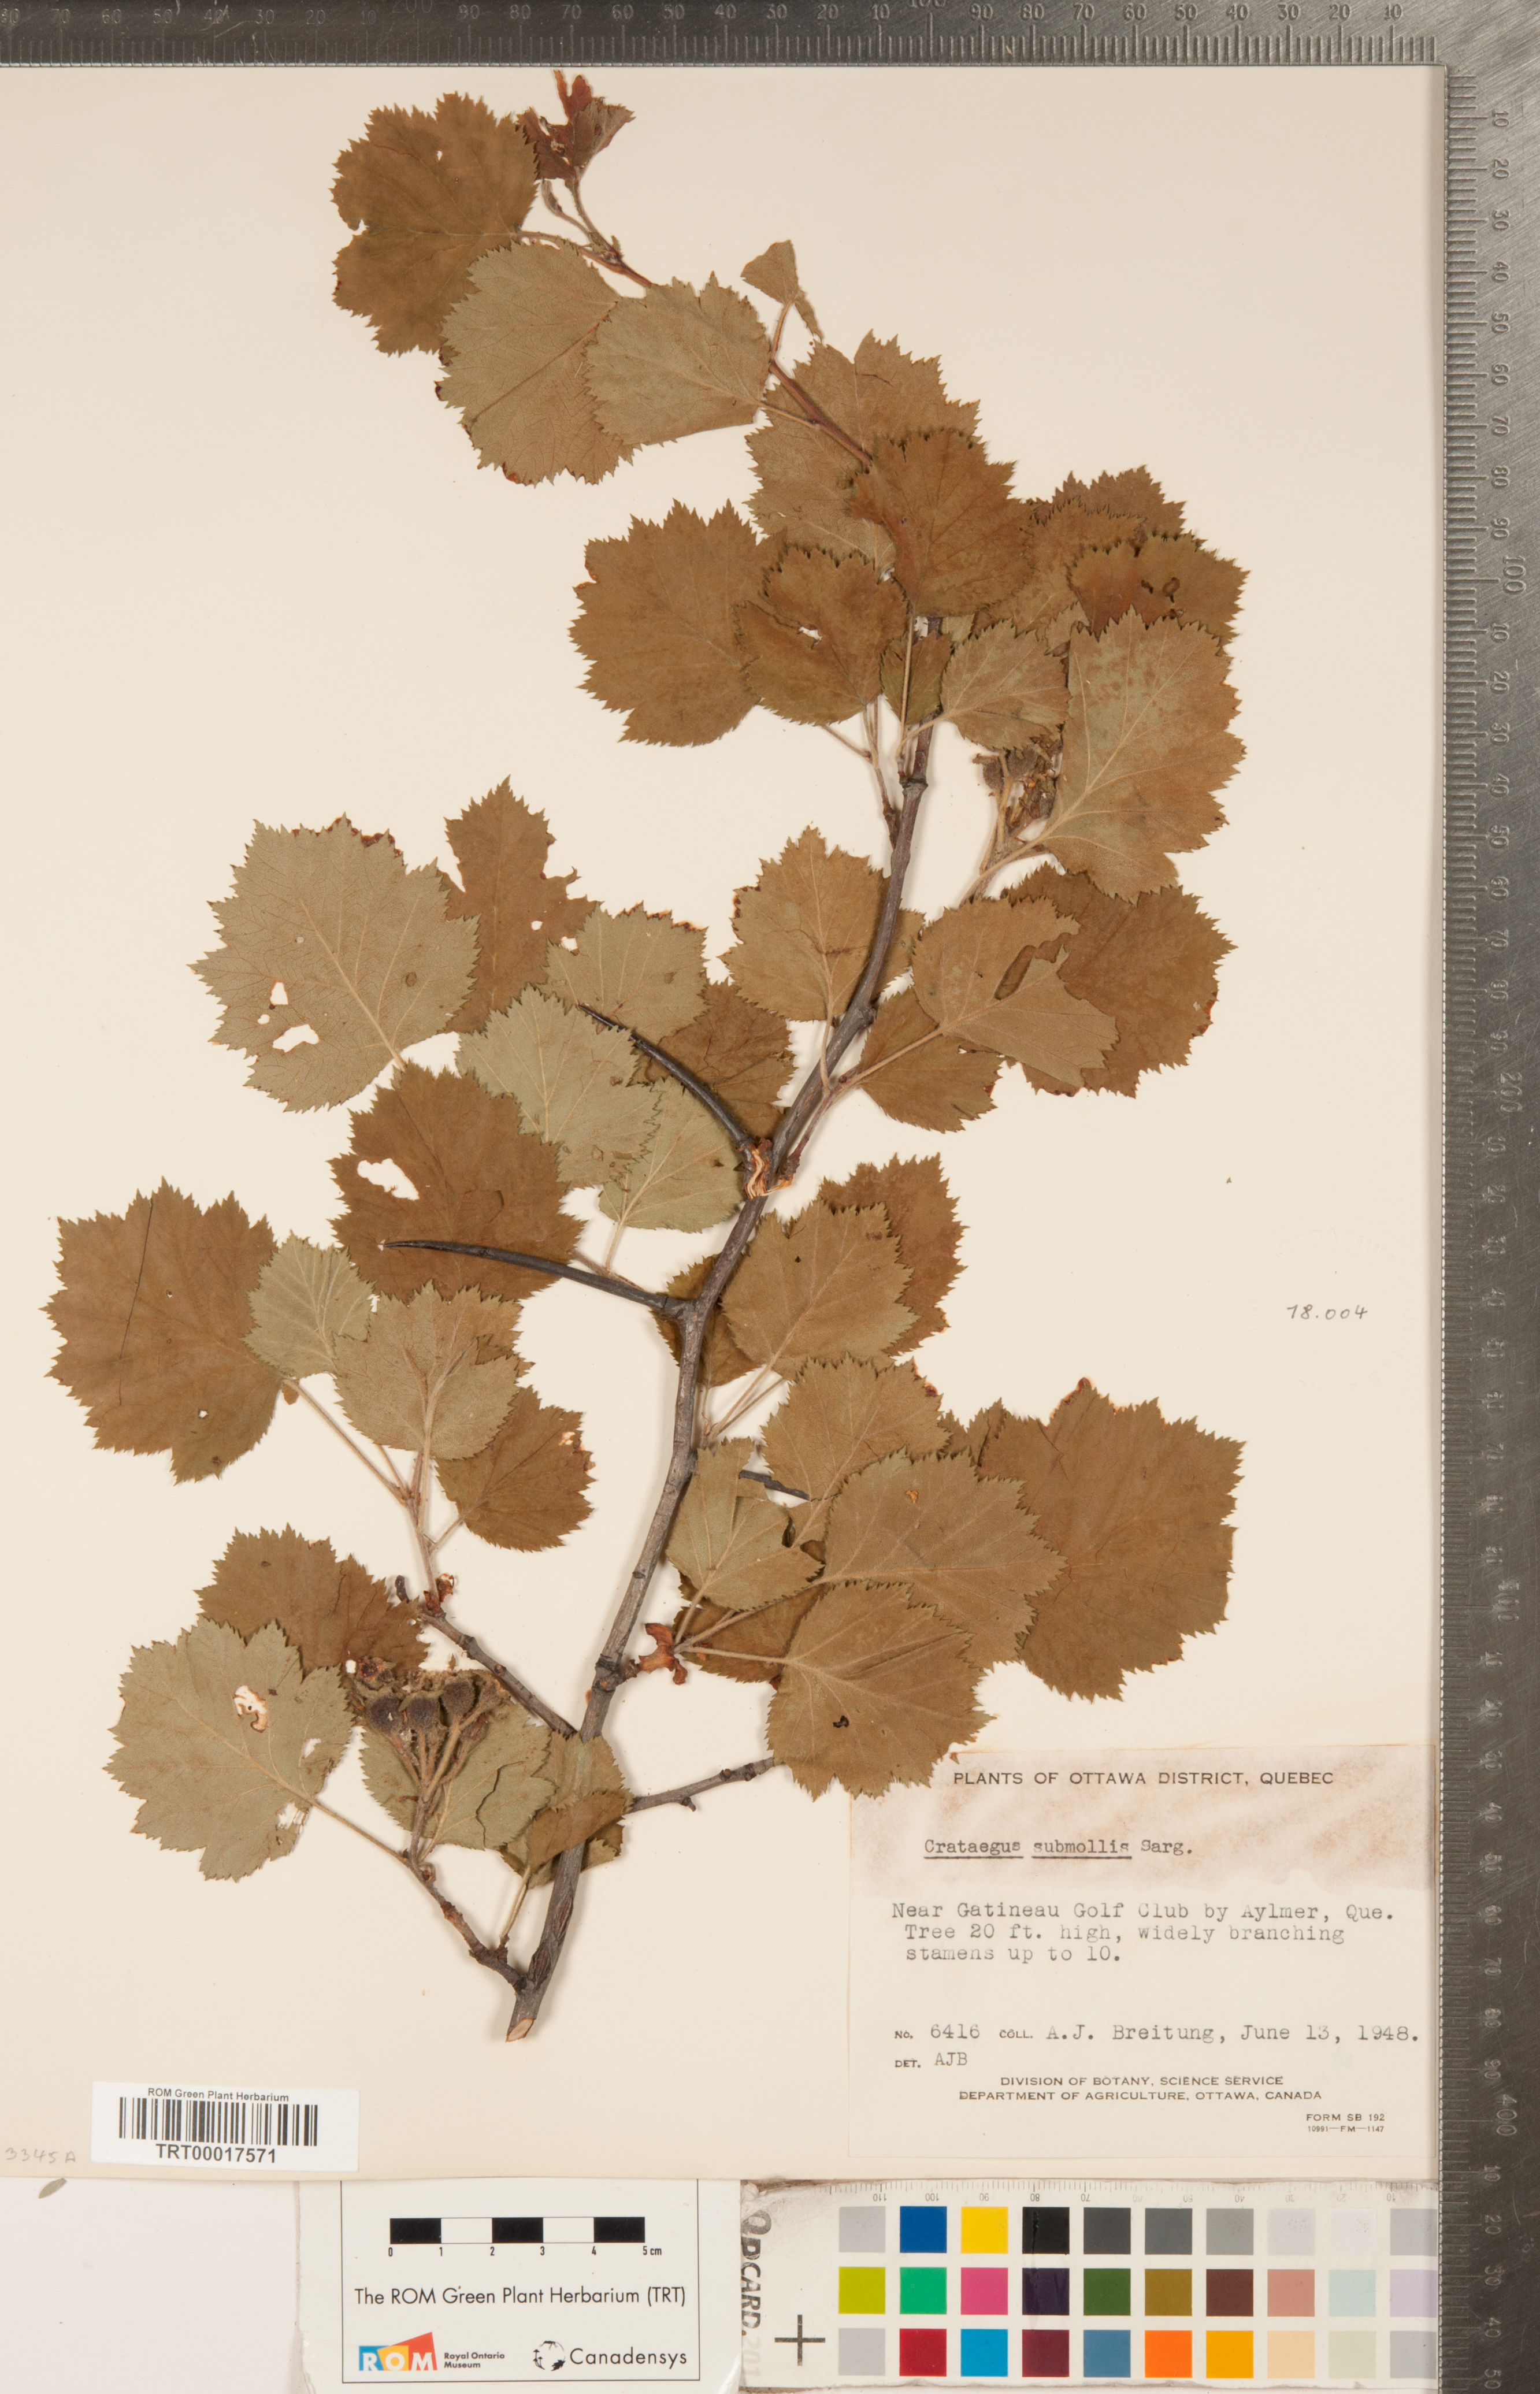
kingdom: Plantae
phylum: Tracheophyta
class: Magnoliopsida
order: Rosales
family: Rosaceae
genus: Crataegus
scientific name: Crataegus submollis
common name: Hairy cockspurthorn
